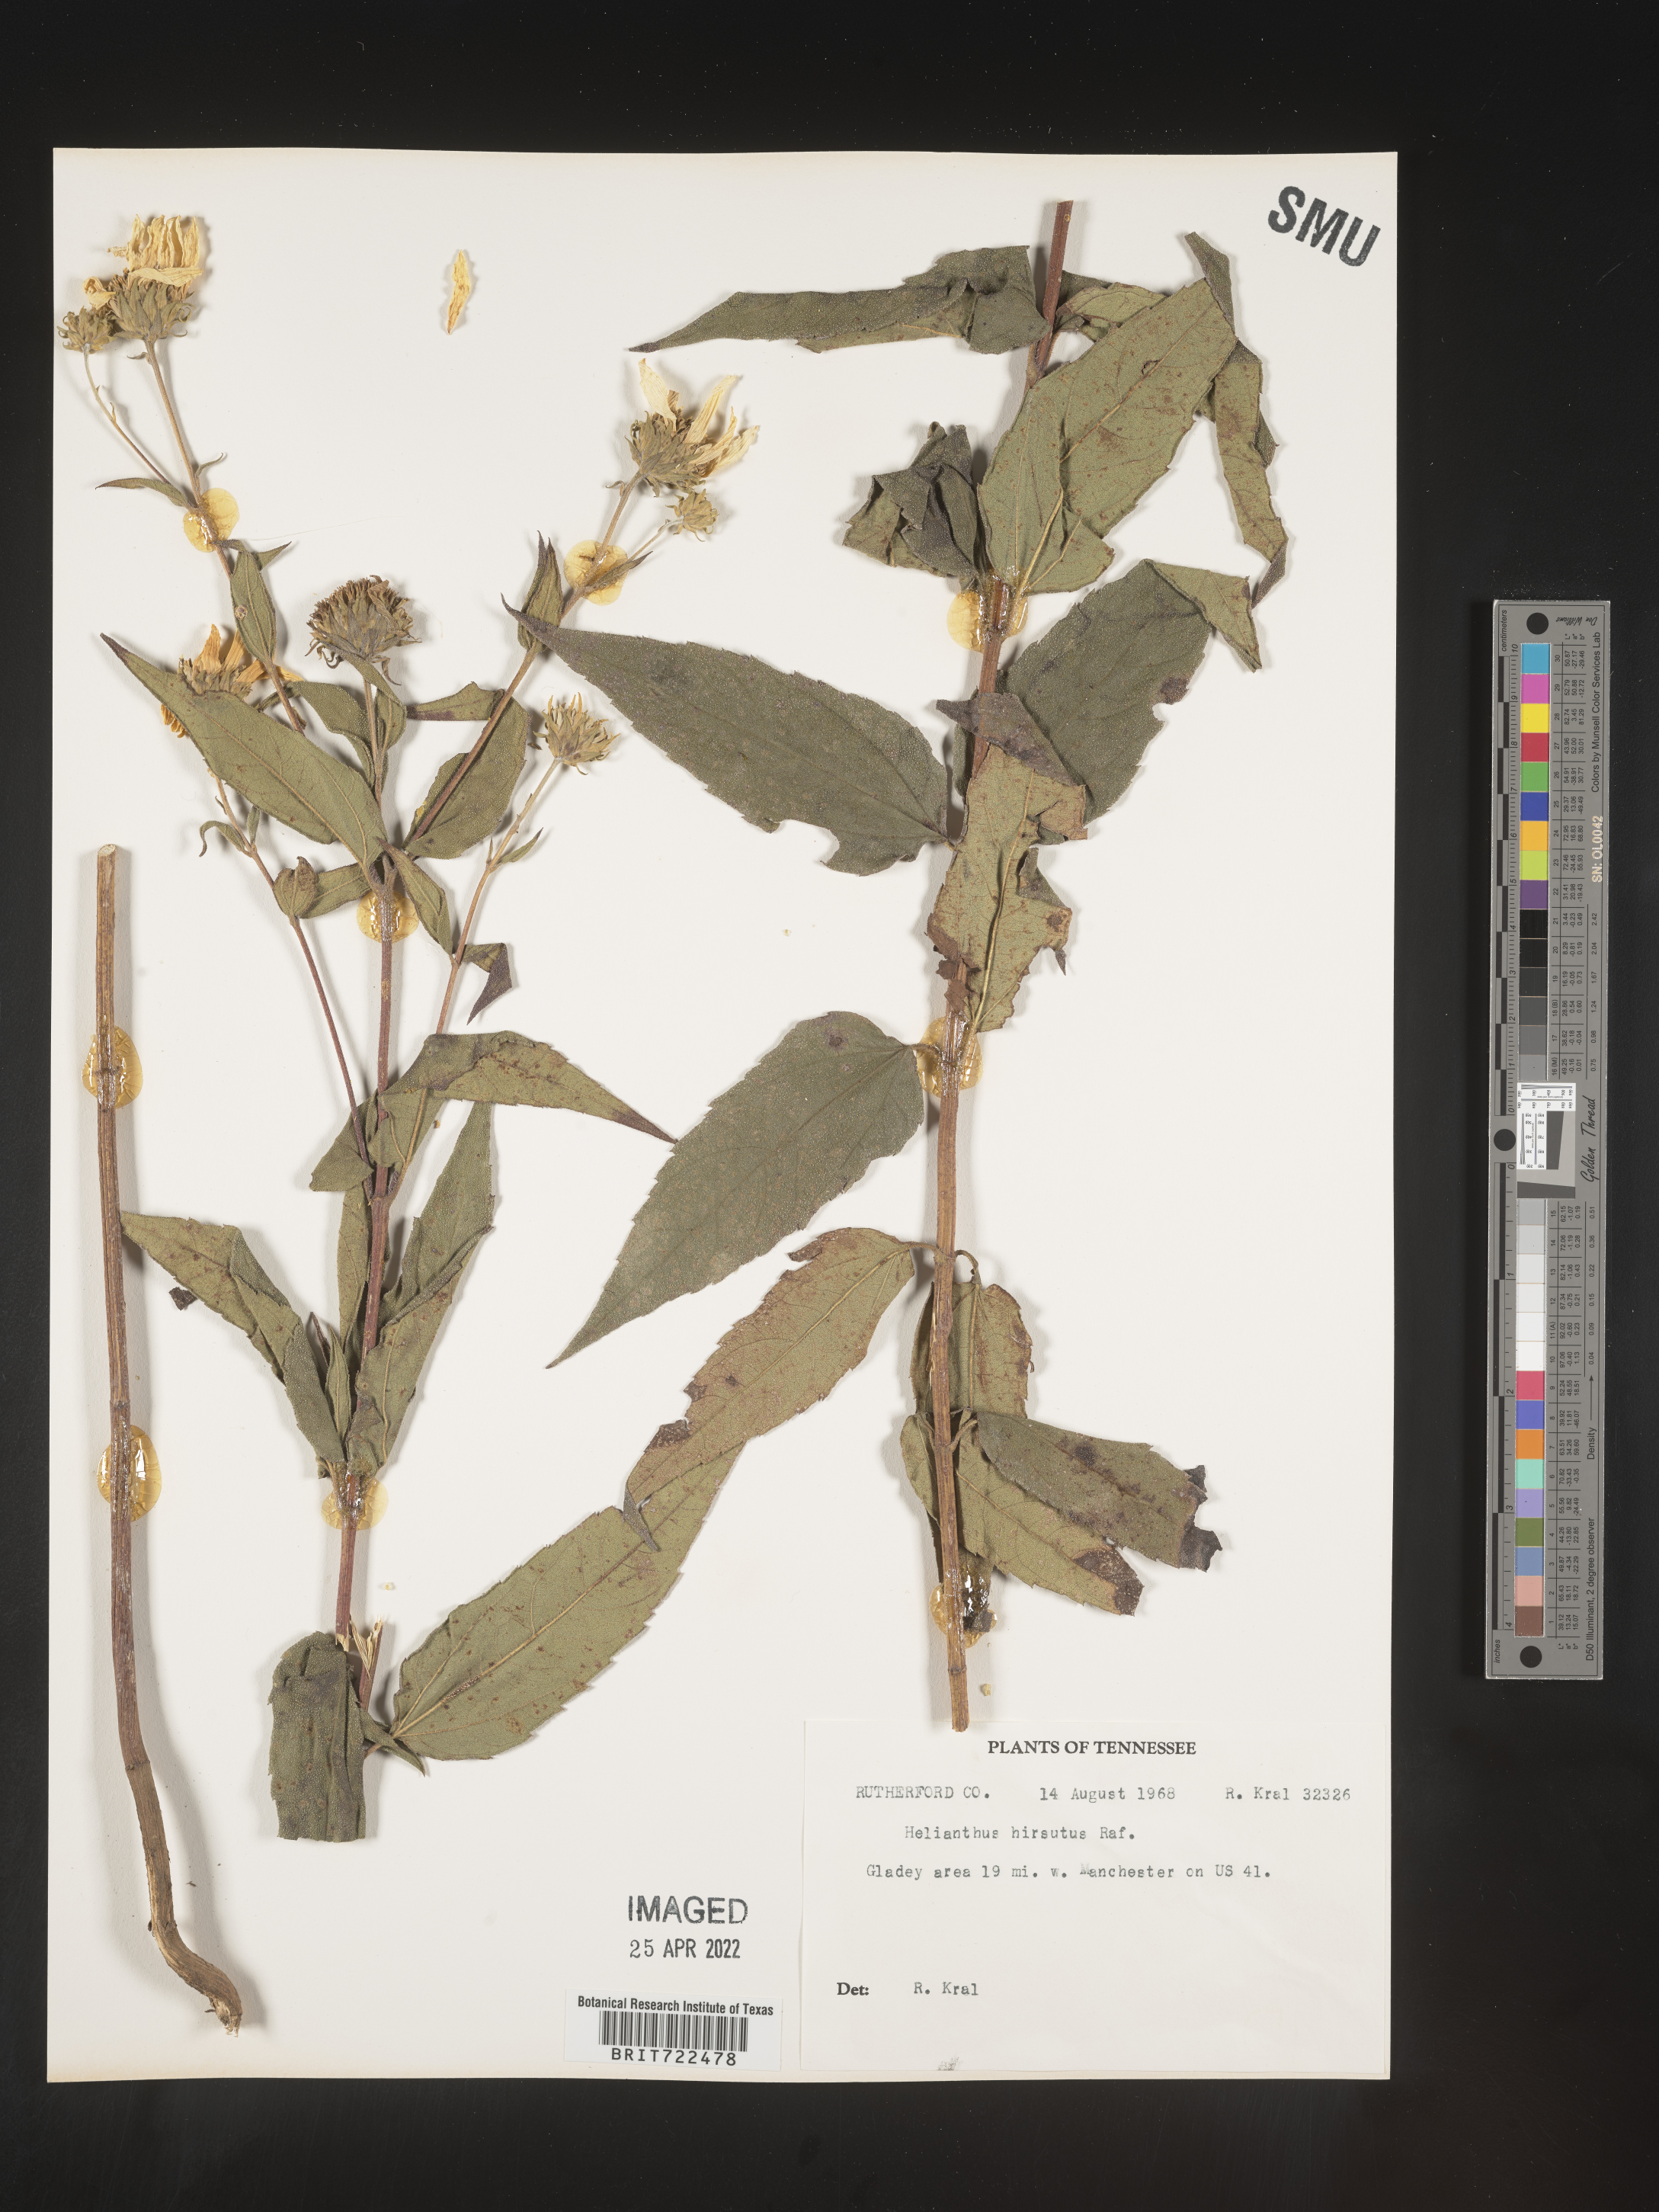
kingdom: Plantae
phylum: Tracheophyta
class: Magnoliopsida
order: Asterales
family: Asteraceae
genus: Helianthus
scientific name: Helianthus hirsutus
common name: Hairy sunflower
